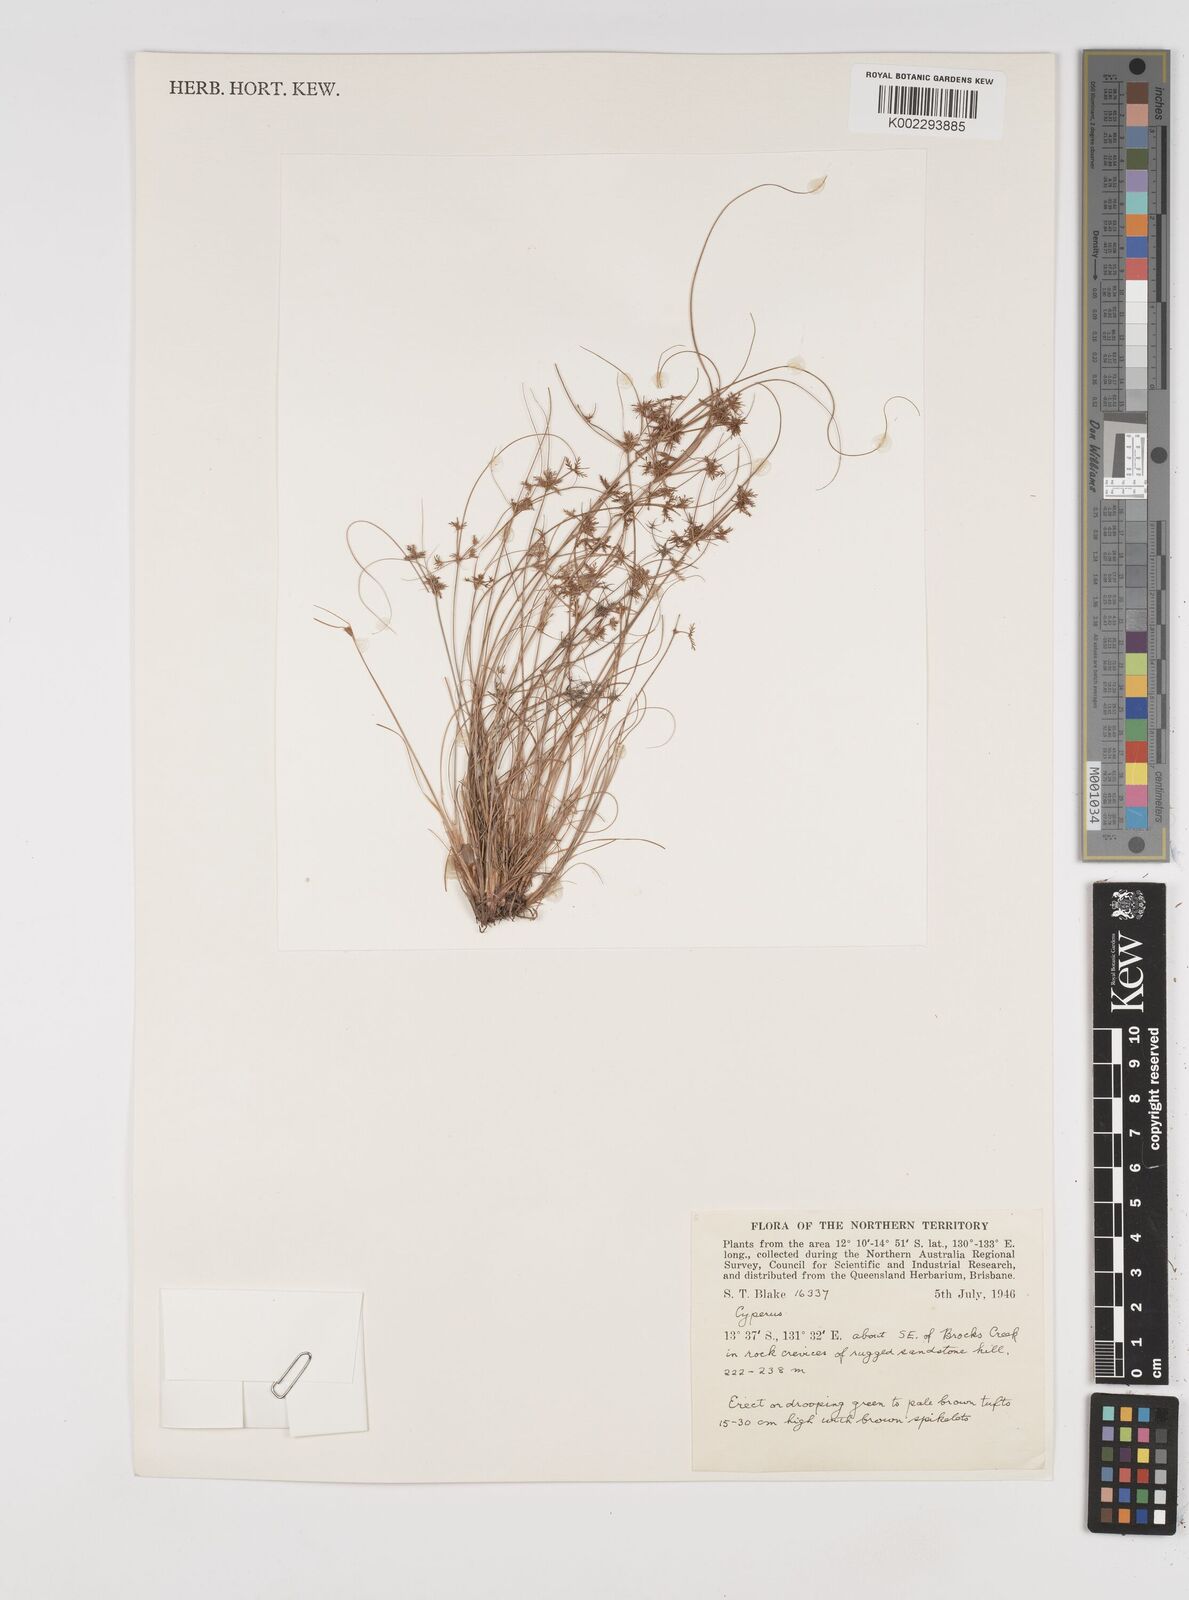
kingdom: Plantae
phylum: Tracheophyta
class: Liliopsida
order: Poales
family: Cyperaceae
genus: Cyperus
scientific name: Cyperus
